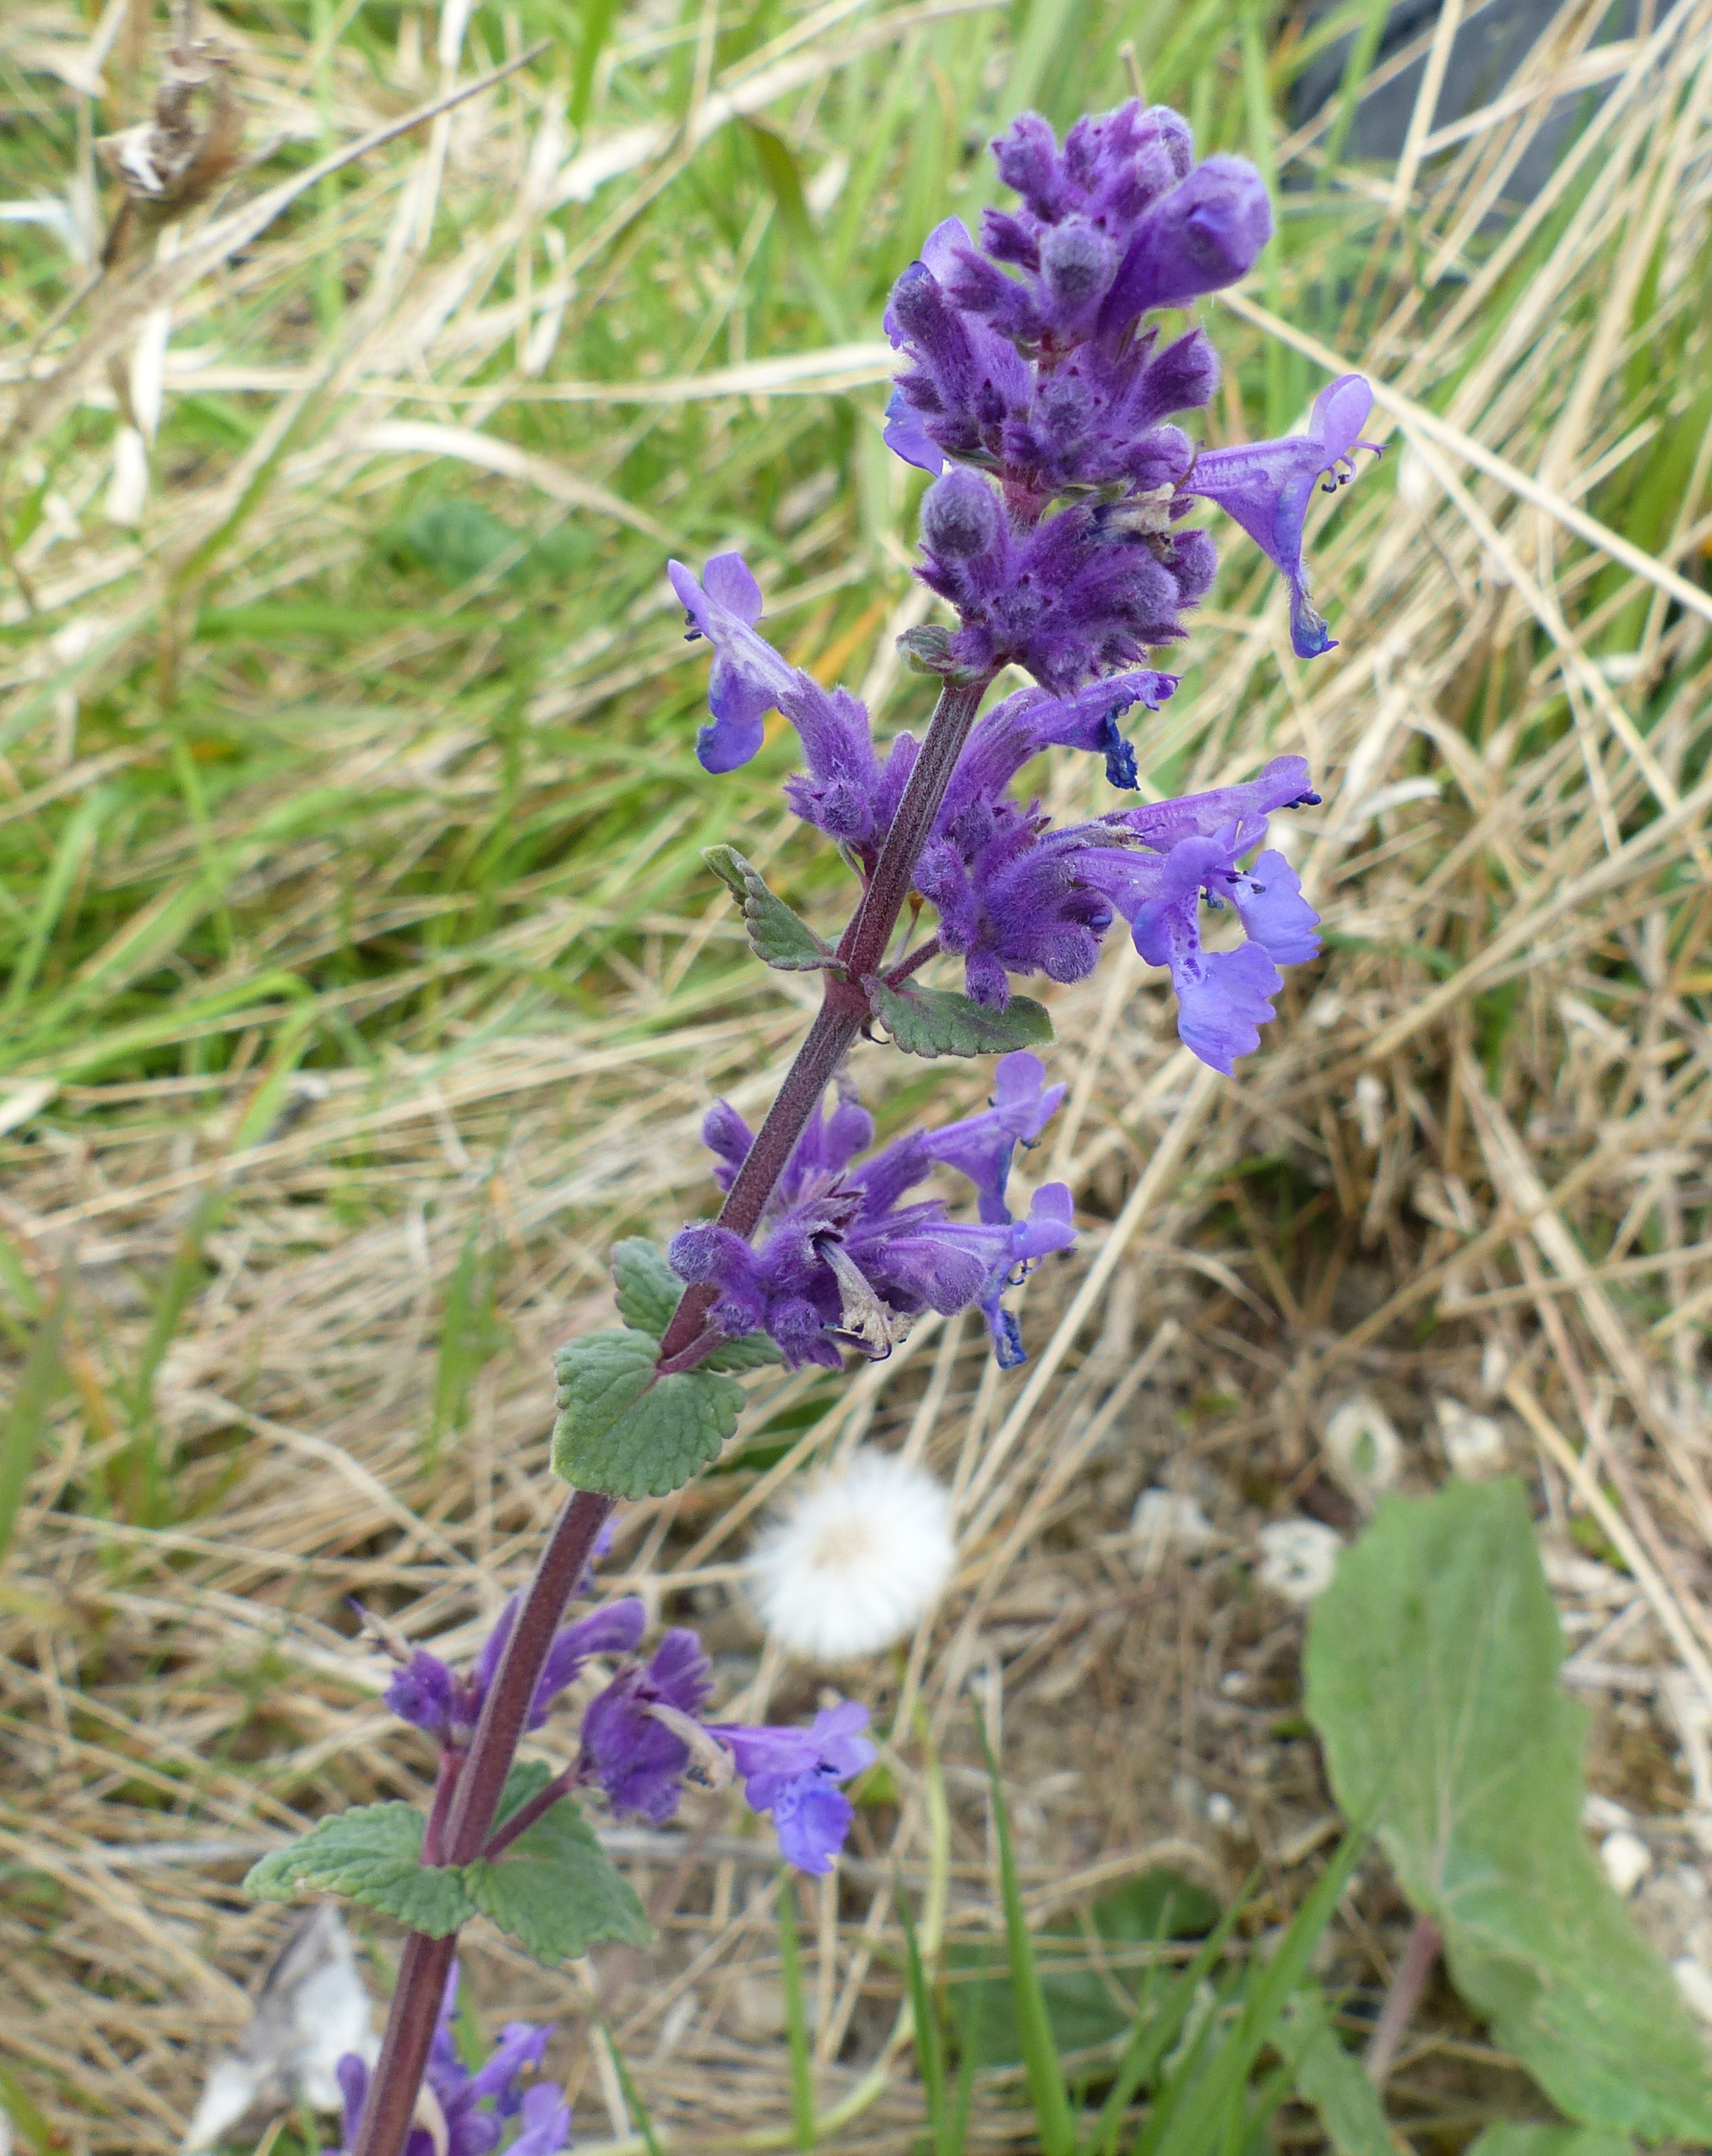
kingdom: Plantae
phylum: Tracheophyta
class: Magnoliopsida
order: Lamiales
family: Lamiaceae
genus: Nepeta
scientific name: Nepeta racemosa
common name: Ægte blåkant
